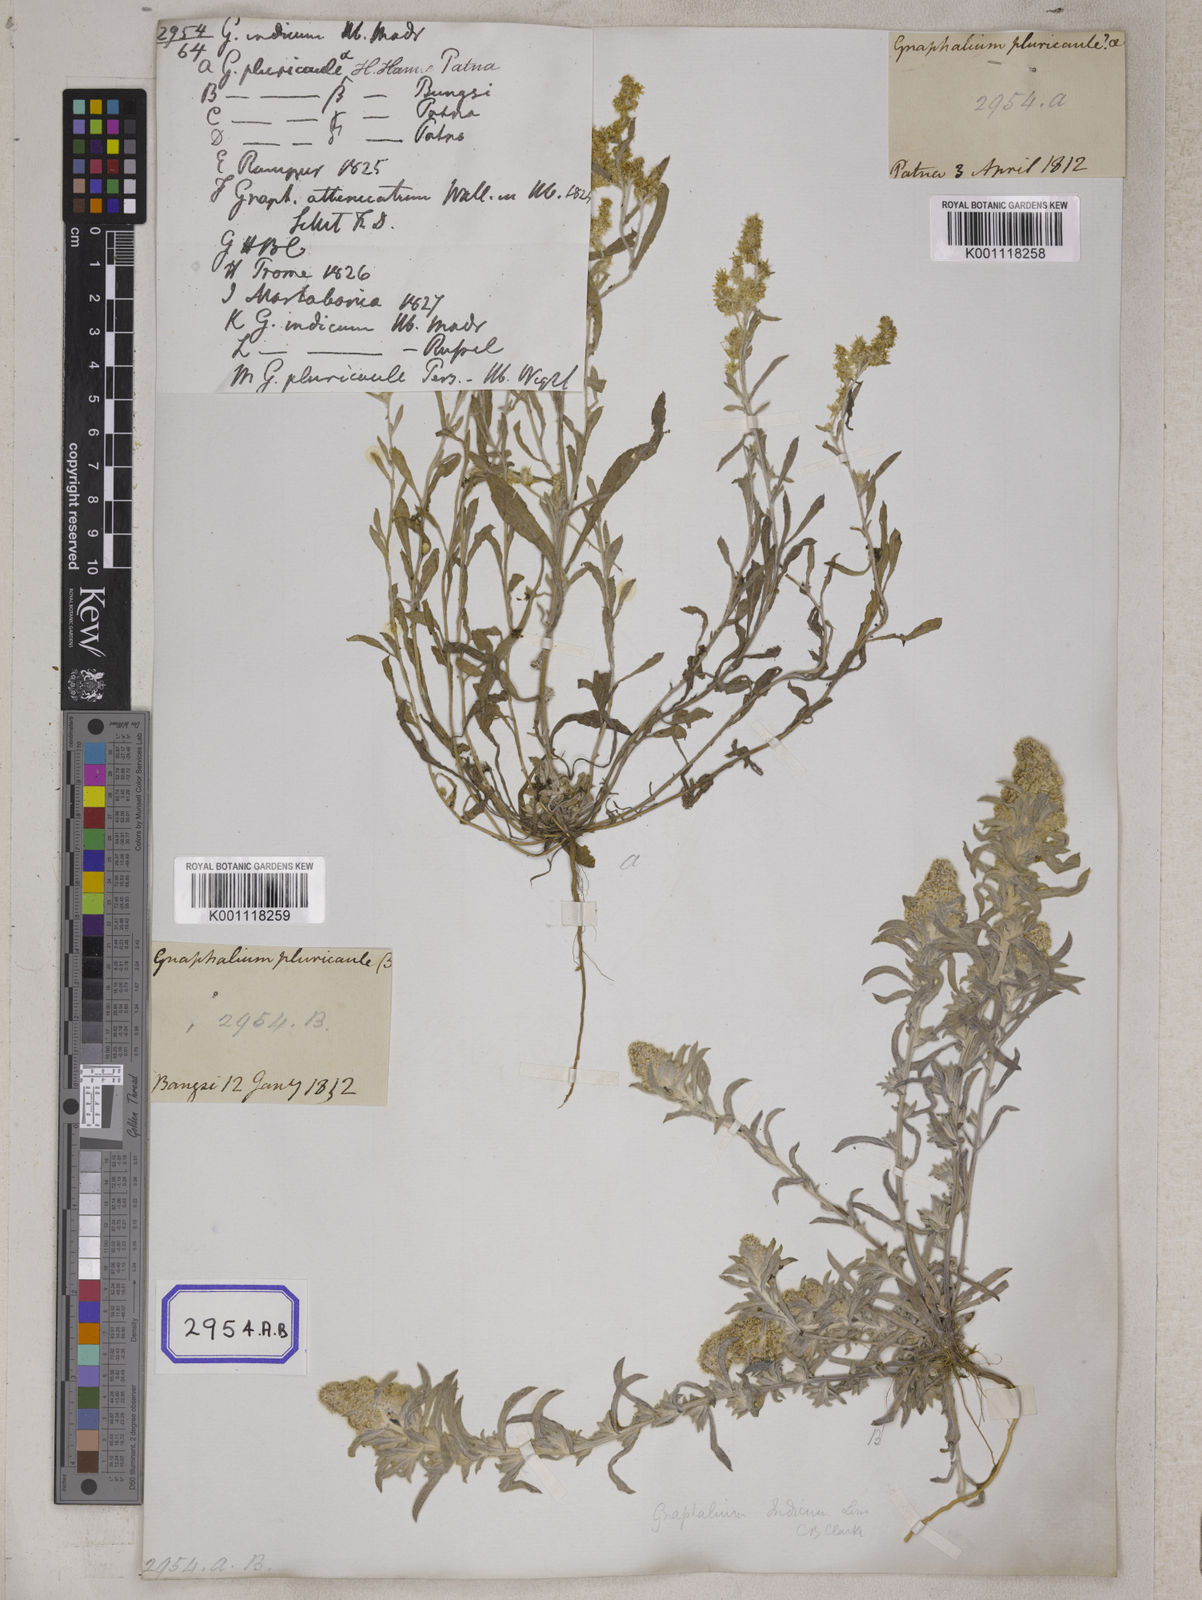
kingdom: Plantae
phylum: Tracheophyta
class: Magnoliopsida
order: Asterales
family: Asteraceae
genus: Helichrysum
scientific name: Helichrysum indicum
